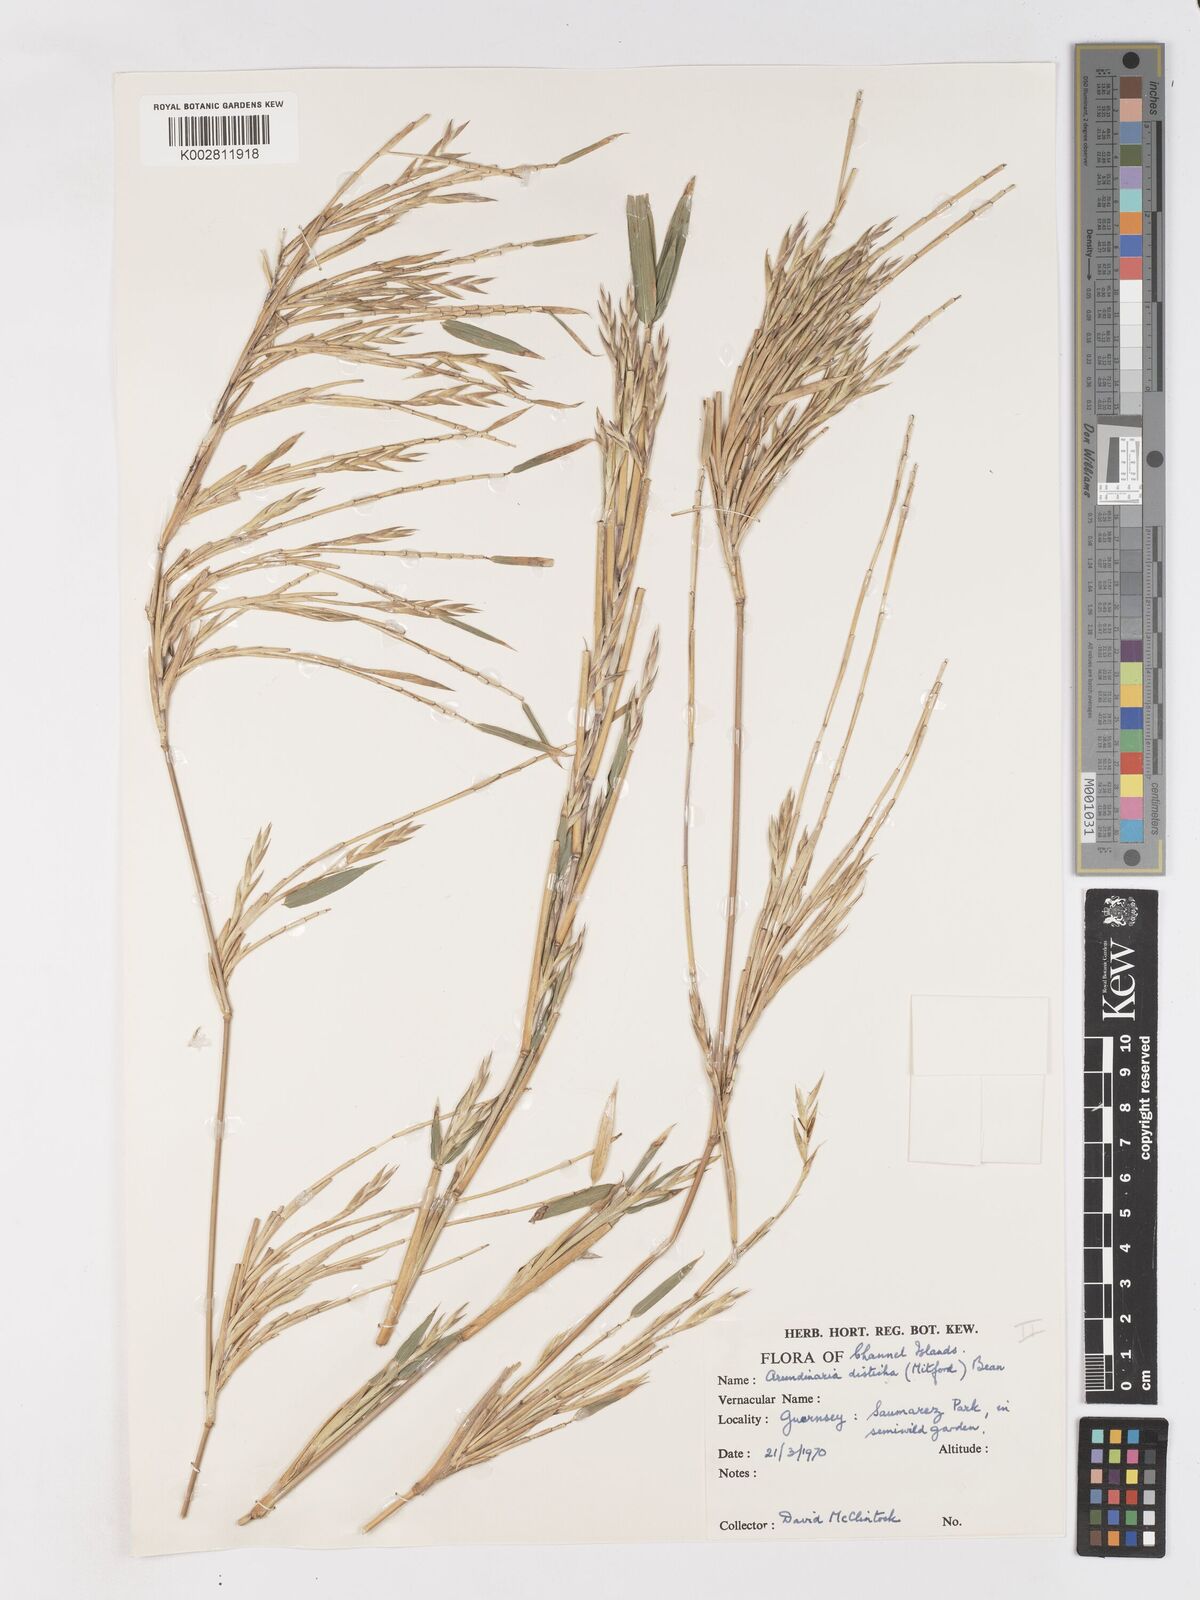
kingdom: Plantae
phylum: Tracheophyta
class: Liliopsida
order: Poales
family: Poaceae
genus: Pleioblastus
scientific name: Pleioblastus distichus
